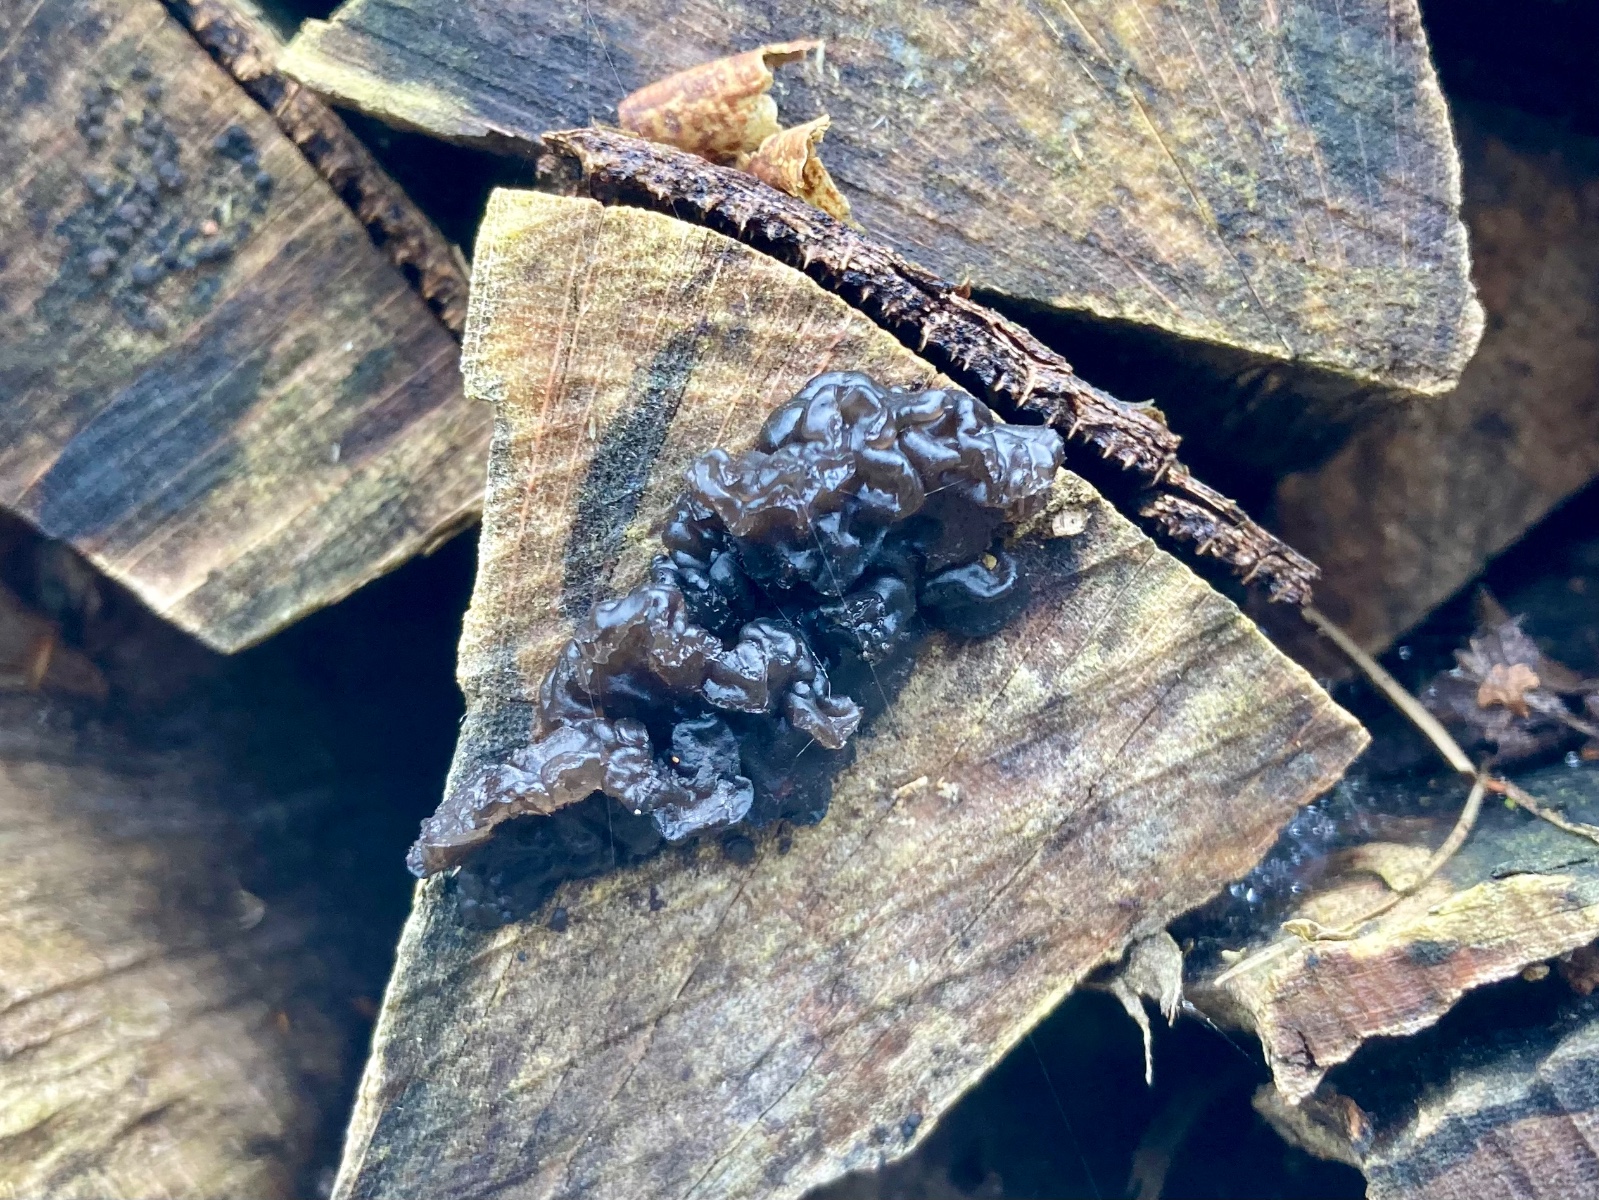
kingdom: Fungi
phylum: Basidiomycota
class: Agaricomycetes
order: Auriculariales
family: Auriculariaceae
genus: Exidia
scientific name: Exidia nigricans
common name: almindelig bævretop
